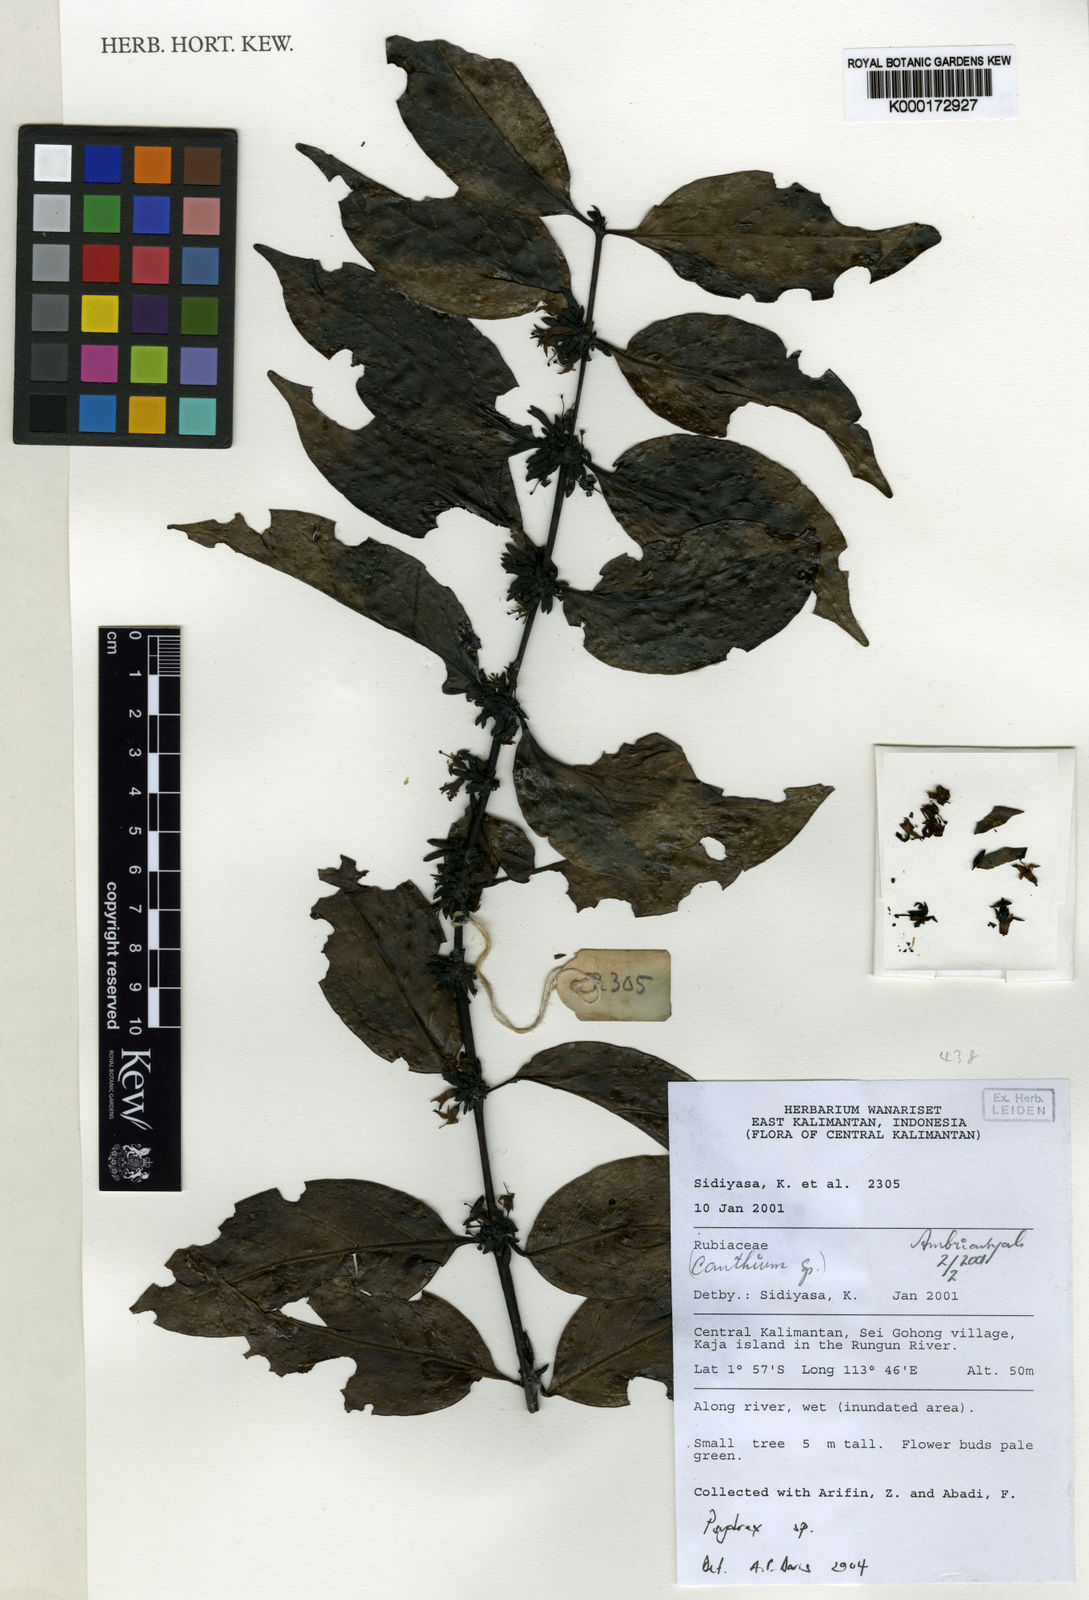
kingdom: Plantae
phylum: Tracheophyta
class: Magnoliopsida
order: Gentianales
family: Rubiaceae
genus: Psydrax
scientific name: Psydrax
